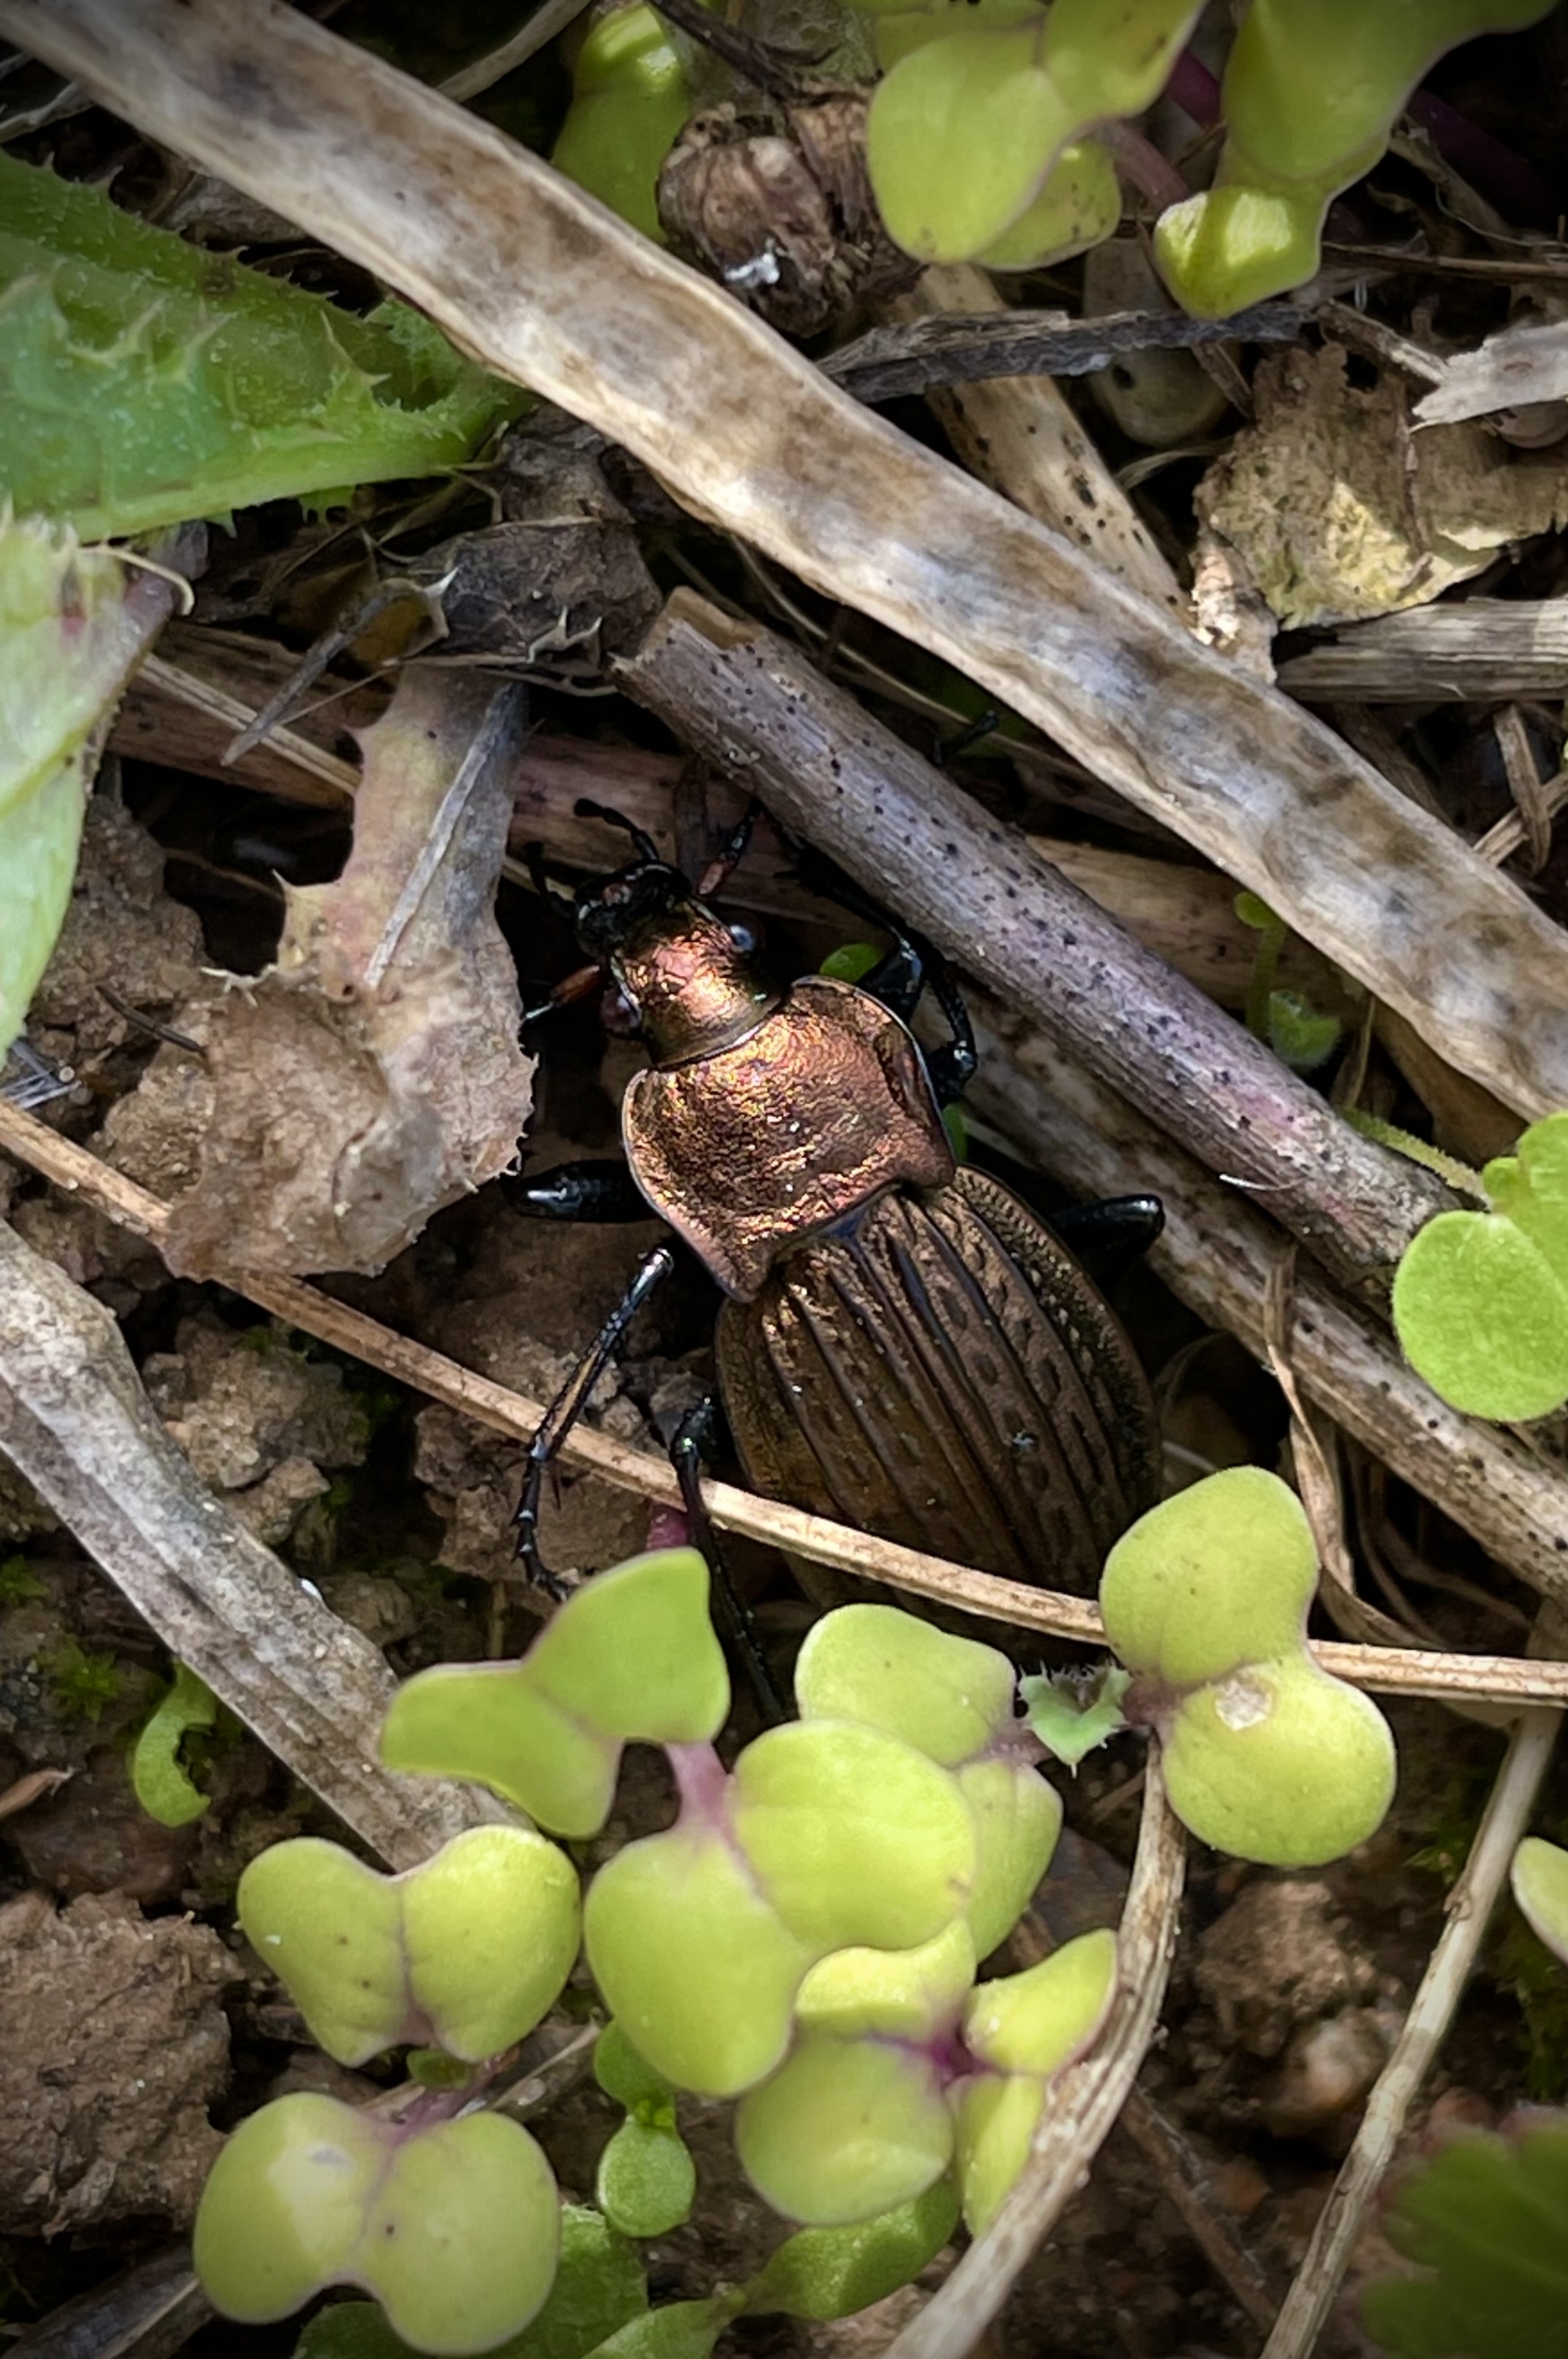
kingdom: Animalia
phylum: Arthropoda
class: Insecta
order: Coleoptera
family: Carabidae
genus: Carabus
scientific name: Carabus cancellatus
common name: Overdrevsløber
